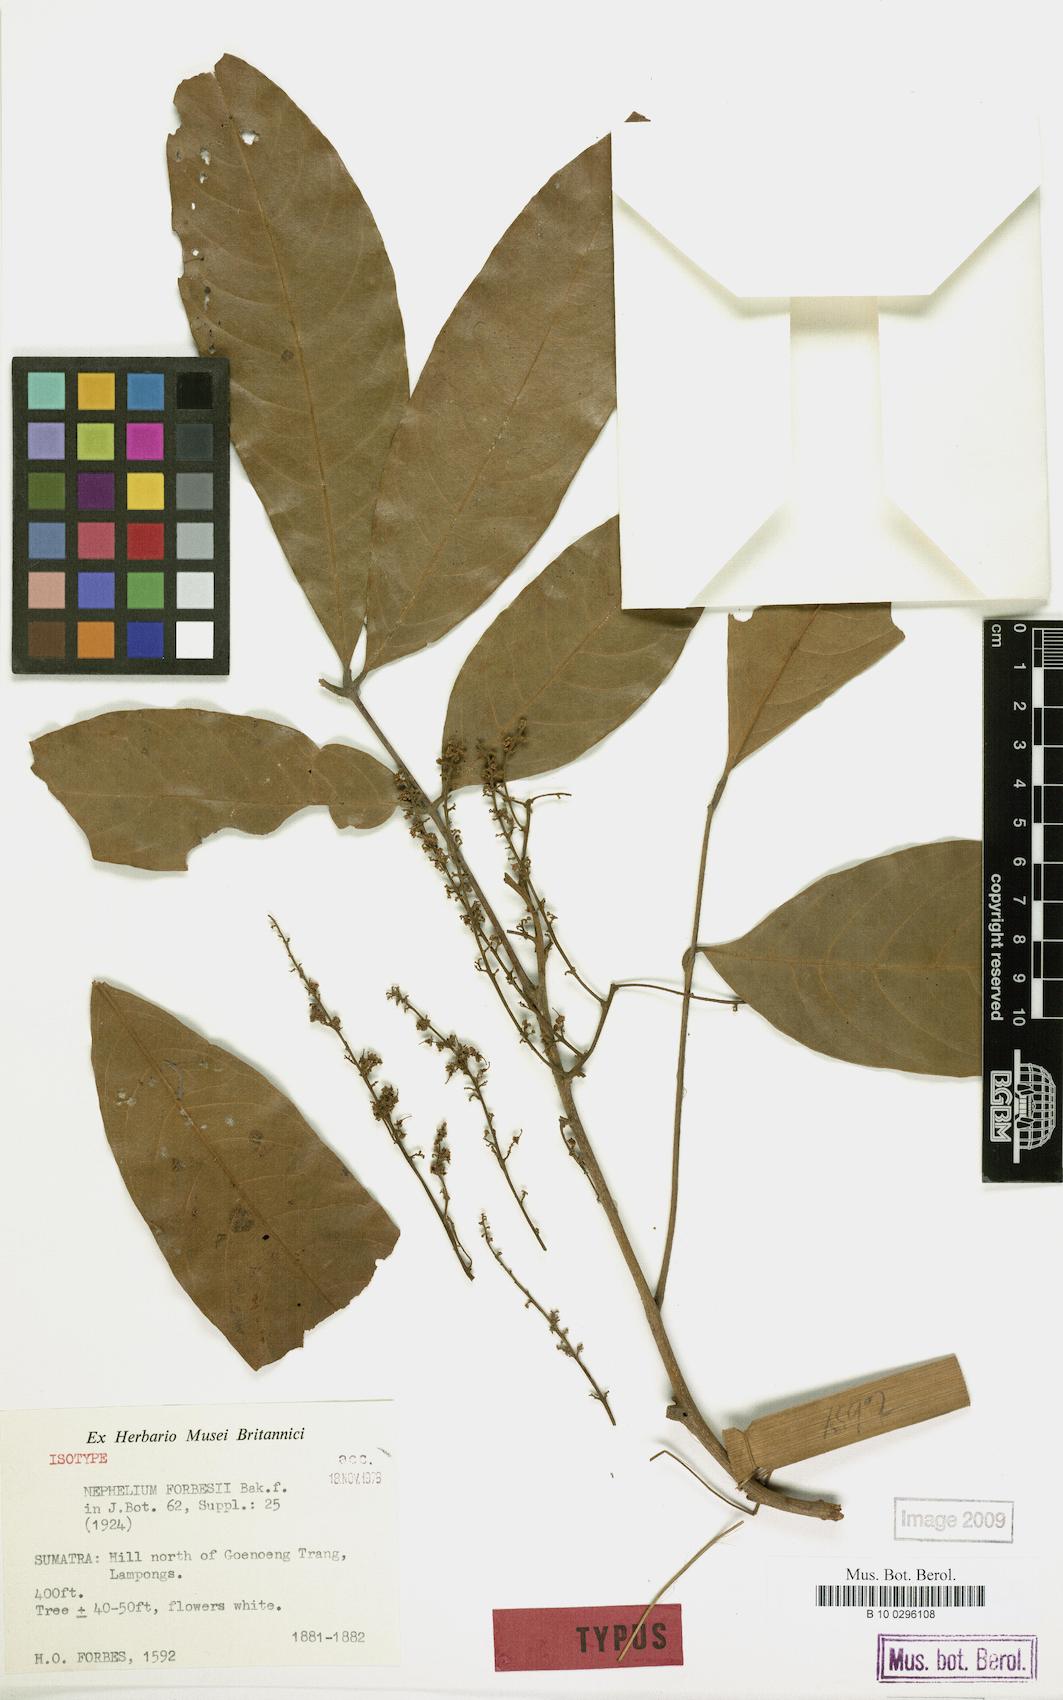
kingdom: Plantae
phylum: Tracheophyta
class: Magnoliopsida
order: Sapindales
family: Sapindaceae
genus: Paranephelium
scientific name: Paranephelium xestophyllum
